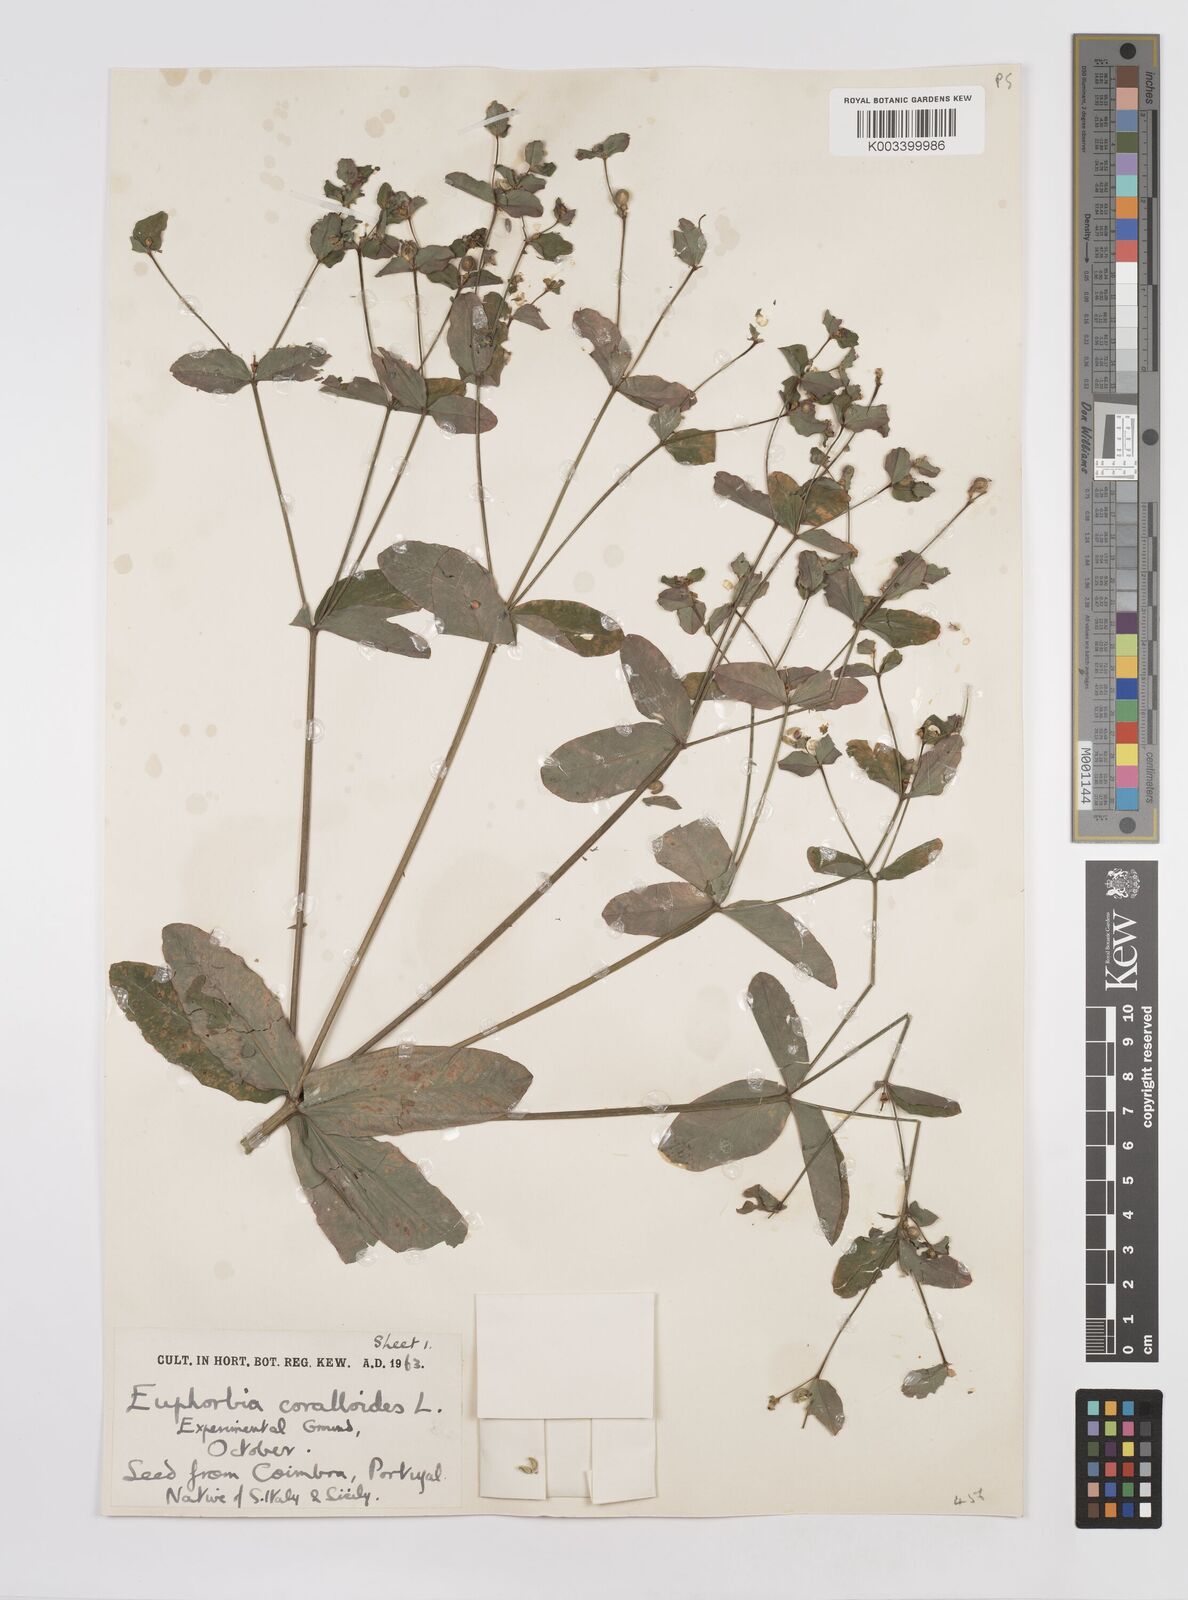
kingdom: Plantae
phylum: Tracheophyta
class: Magnoliopsida
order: Malpighiales
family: Euphorbiaceae
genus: Euphorbia
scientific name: Euphorbia corallioides
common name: Coral spurge
